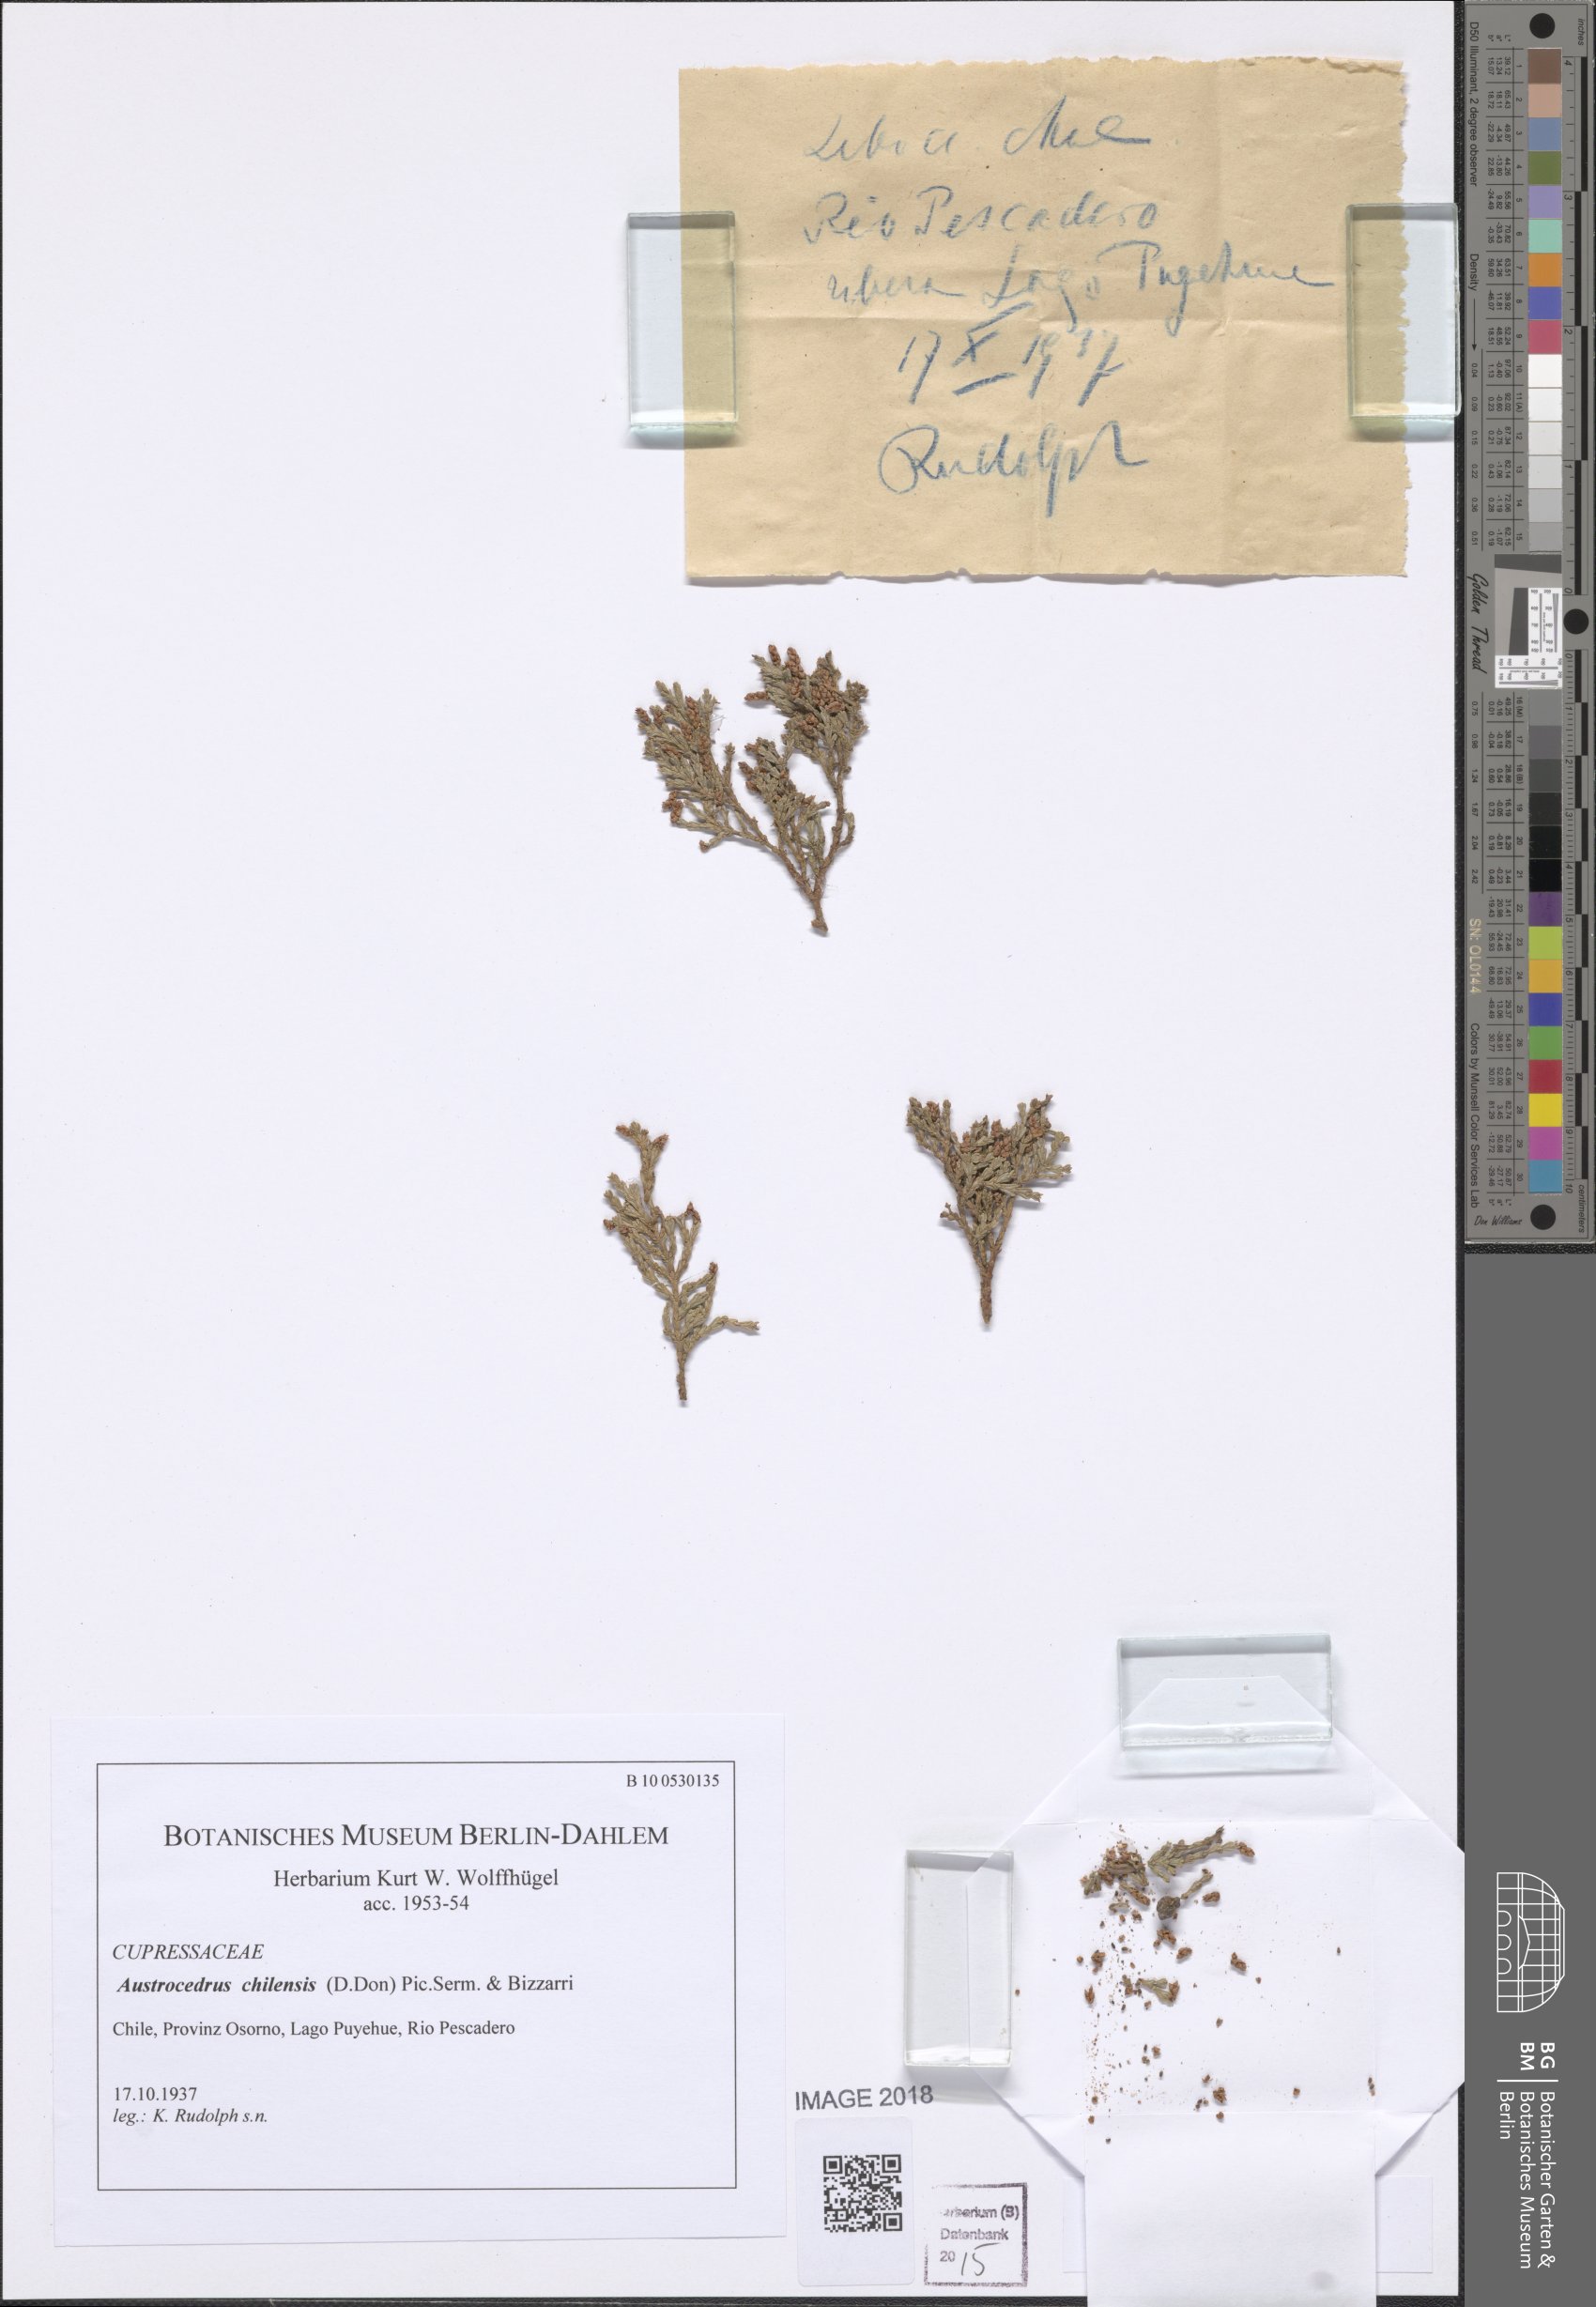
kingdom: Plantae
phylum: Tracheophyta
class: Pinopsida
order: Pinales
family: Cupressaceae
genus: Austrocedrus
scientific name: Austrocedrus chilensis
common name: Chilean incense-cedar
